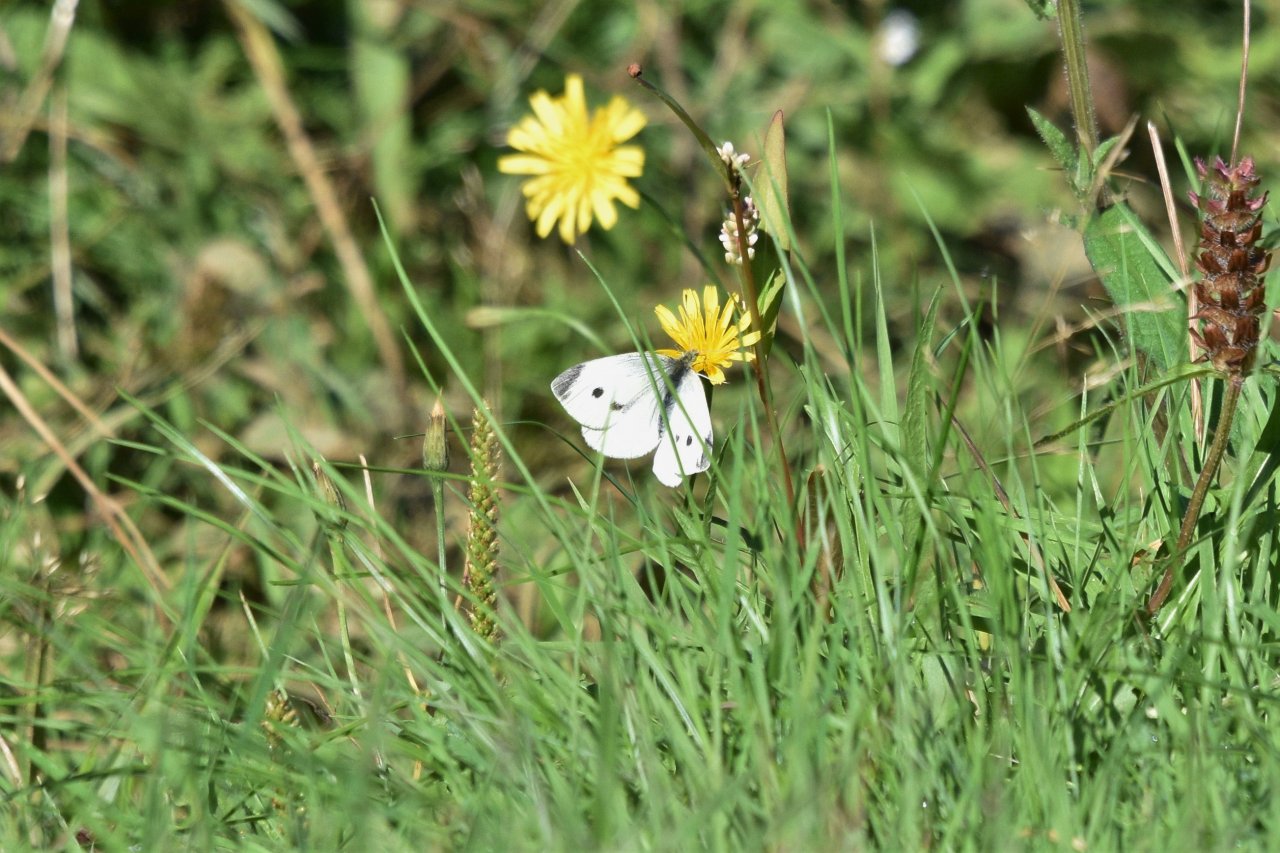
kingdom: Animalia
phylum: Arthropoda
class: Insecta
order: Lepidoptera
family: Pieridae
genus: Pieris
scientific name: Pieris rapae
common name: Cabbage White
